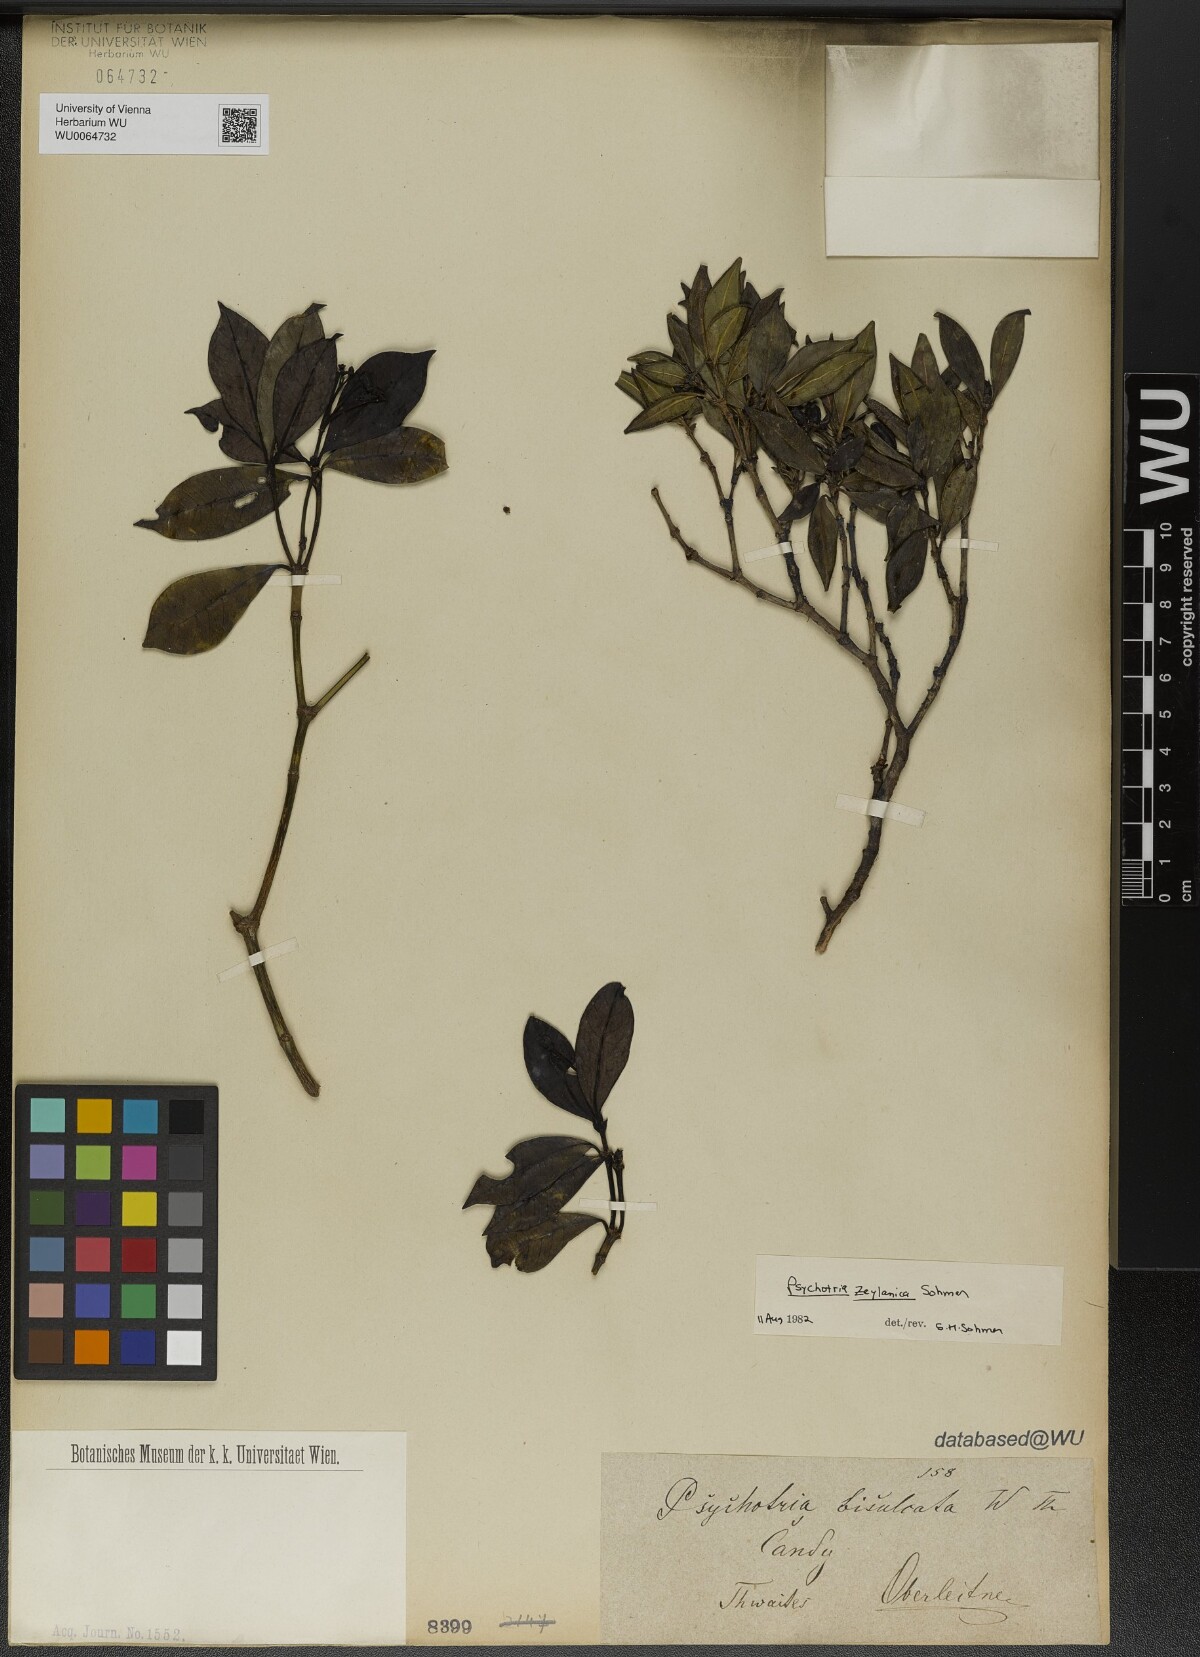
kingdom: Plantae
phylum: Tracheophyta
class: Magnoliopsida
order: Gentianales
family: Rubiaceae
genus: Psychotria
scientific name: Psychotria zeylanica
